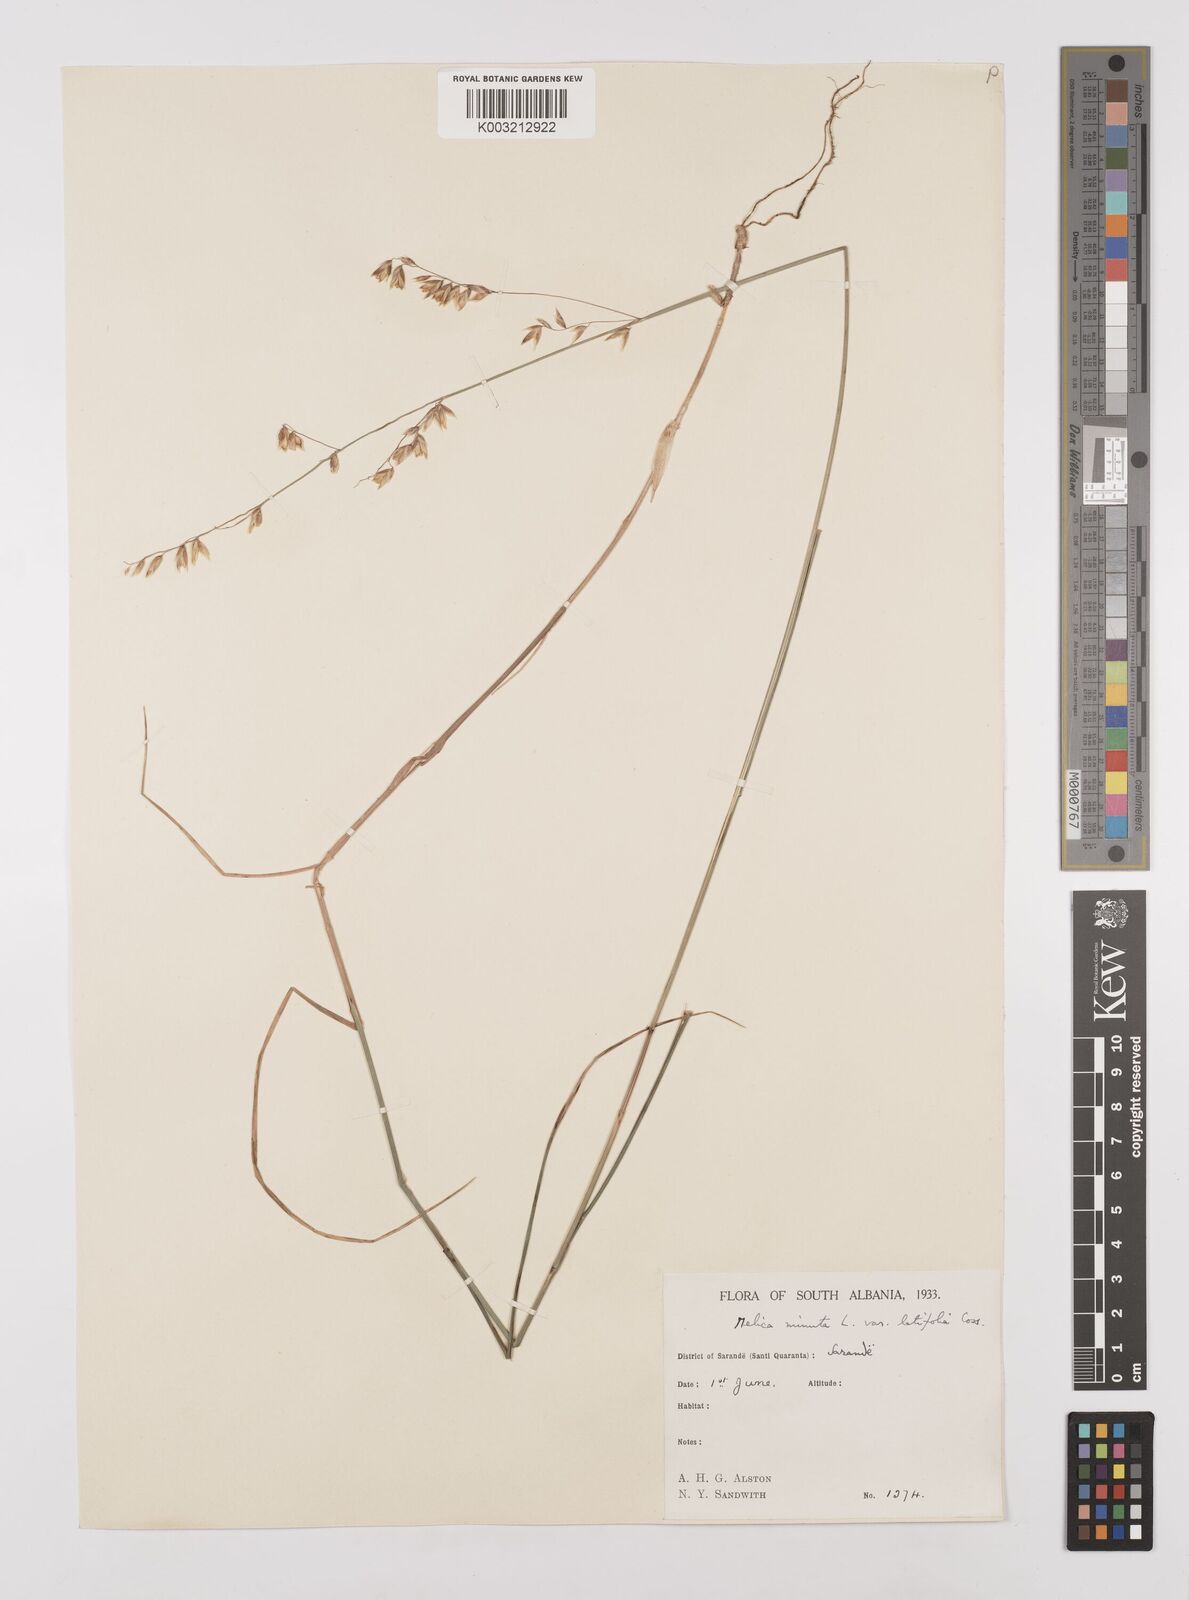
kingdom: Plantae
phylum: Tracheophyta
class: Liliopsida
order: Poales
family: Poaceae
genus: Melica
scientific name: Melica minuta
